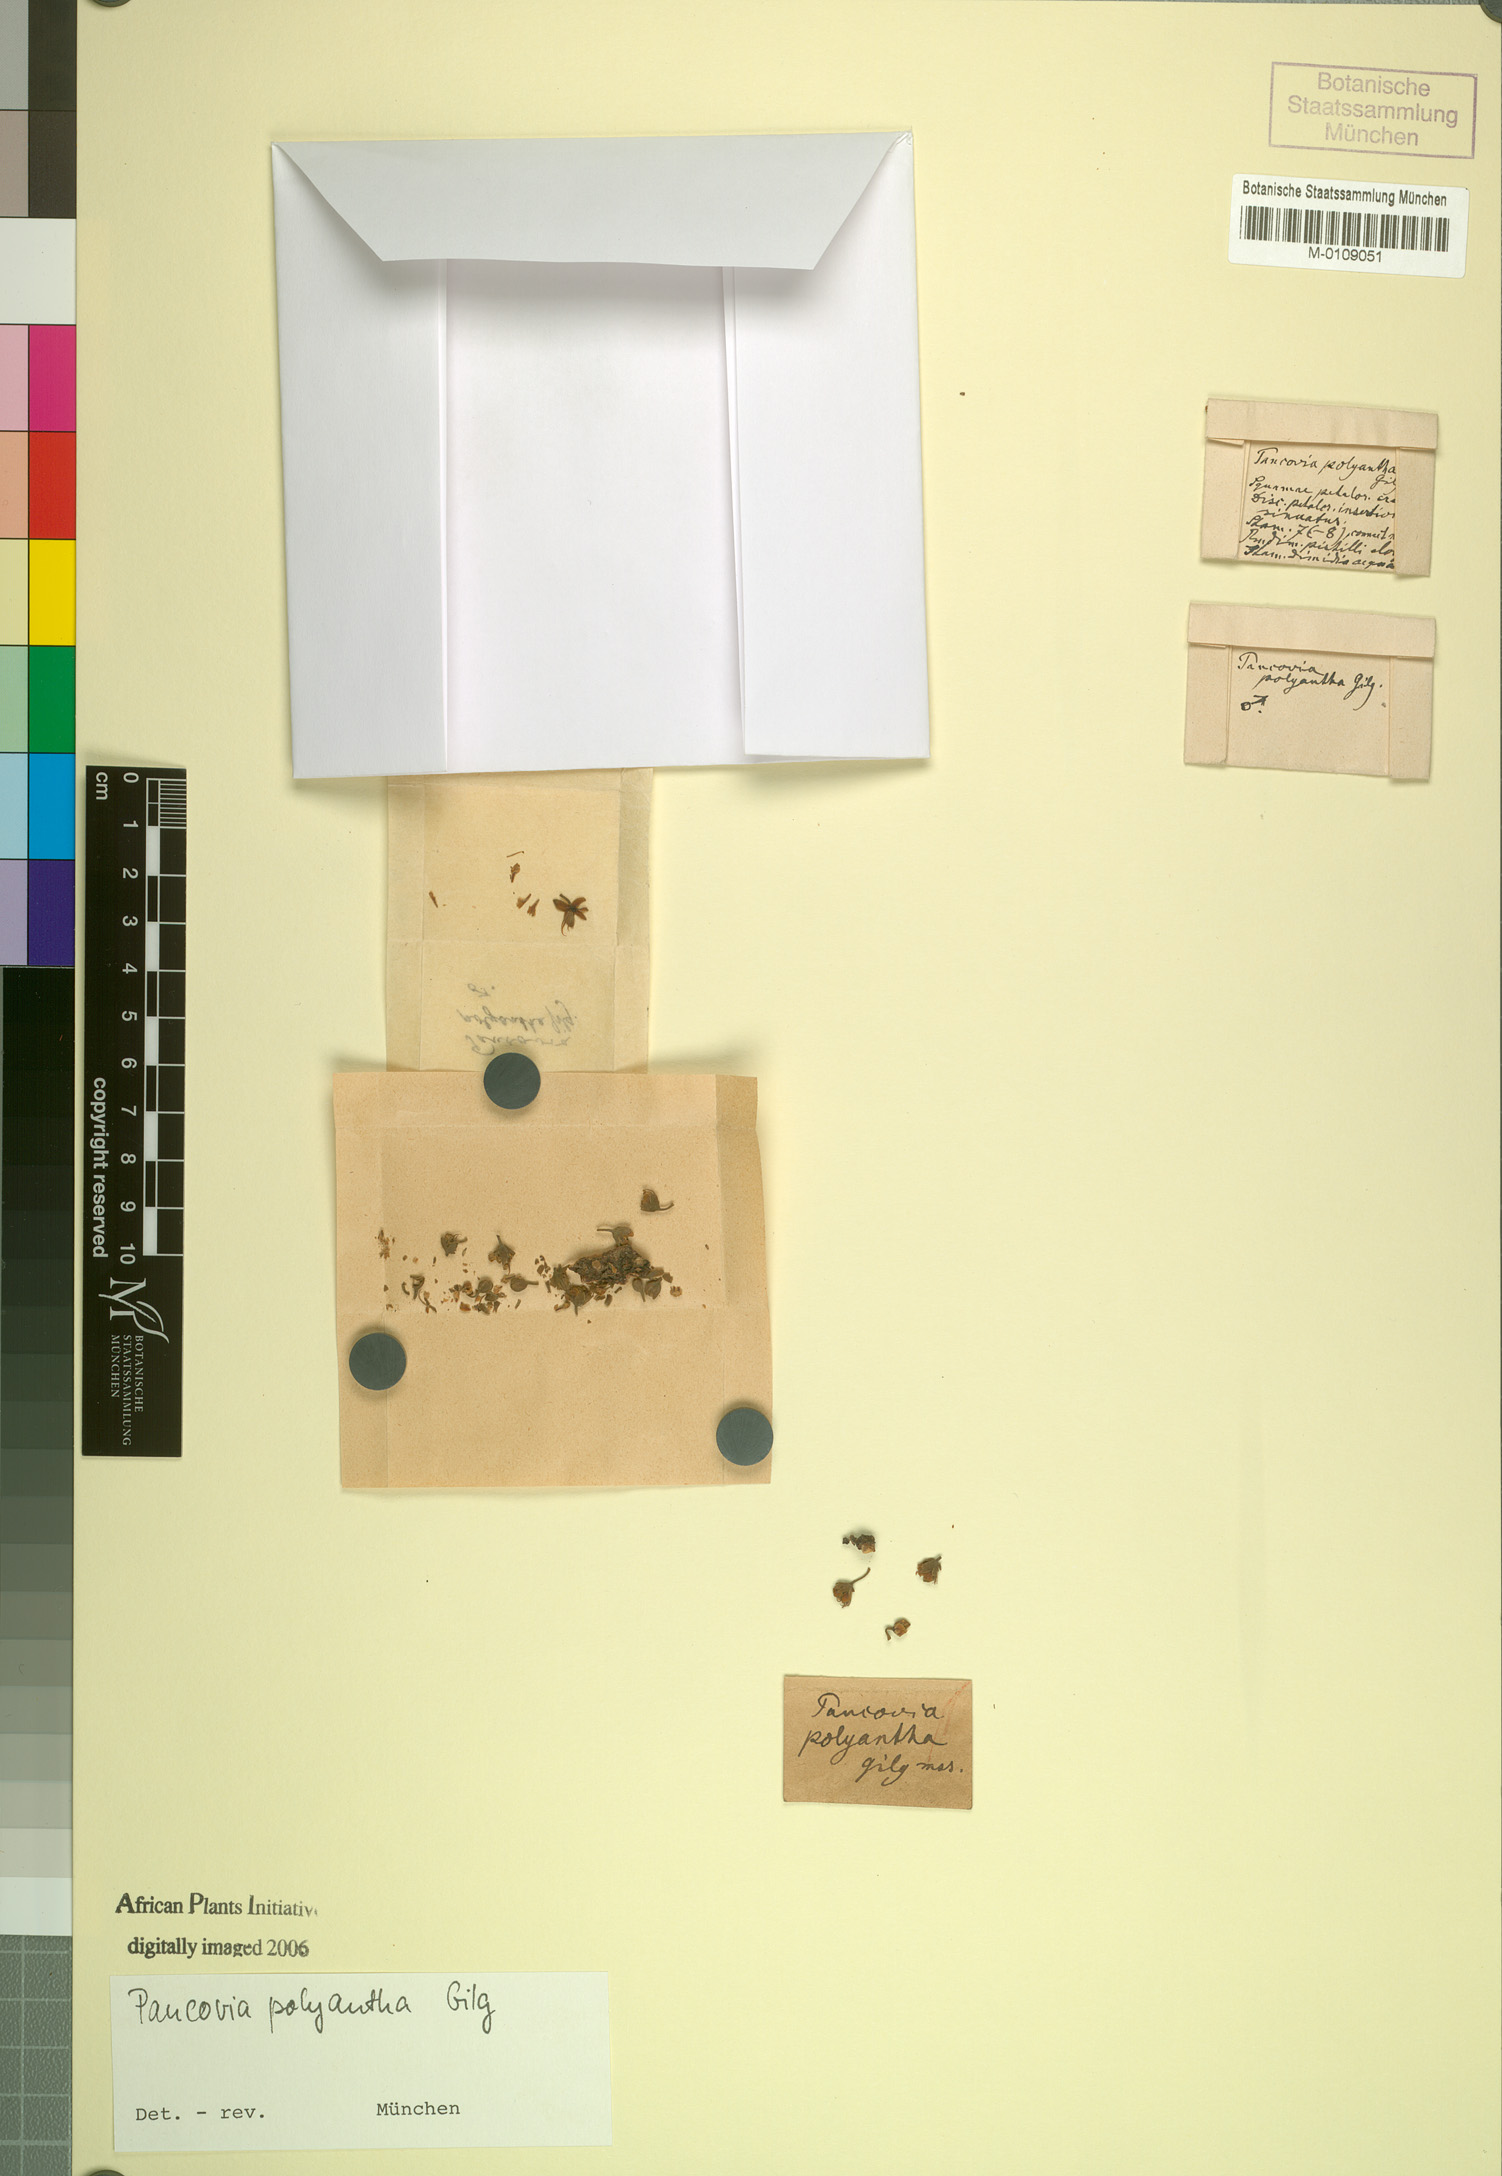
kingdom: Plantae
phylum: Tracheophyta
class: Magnoliopsida
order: Sapindales
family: Sapindaceae
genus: Pancovia
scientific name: Pancovia polyantha
